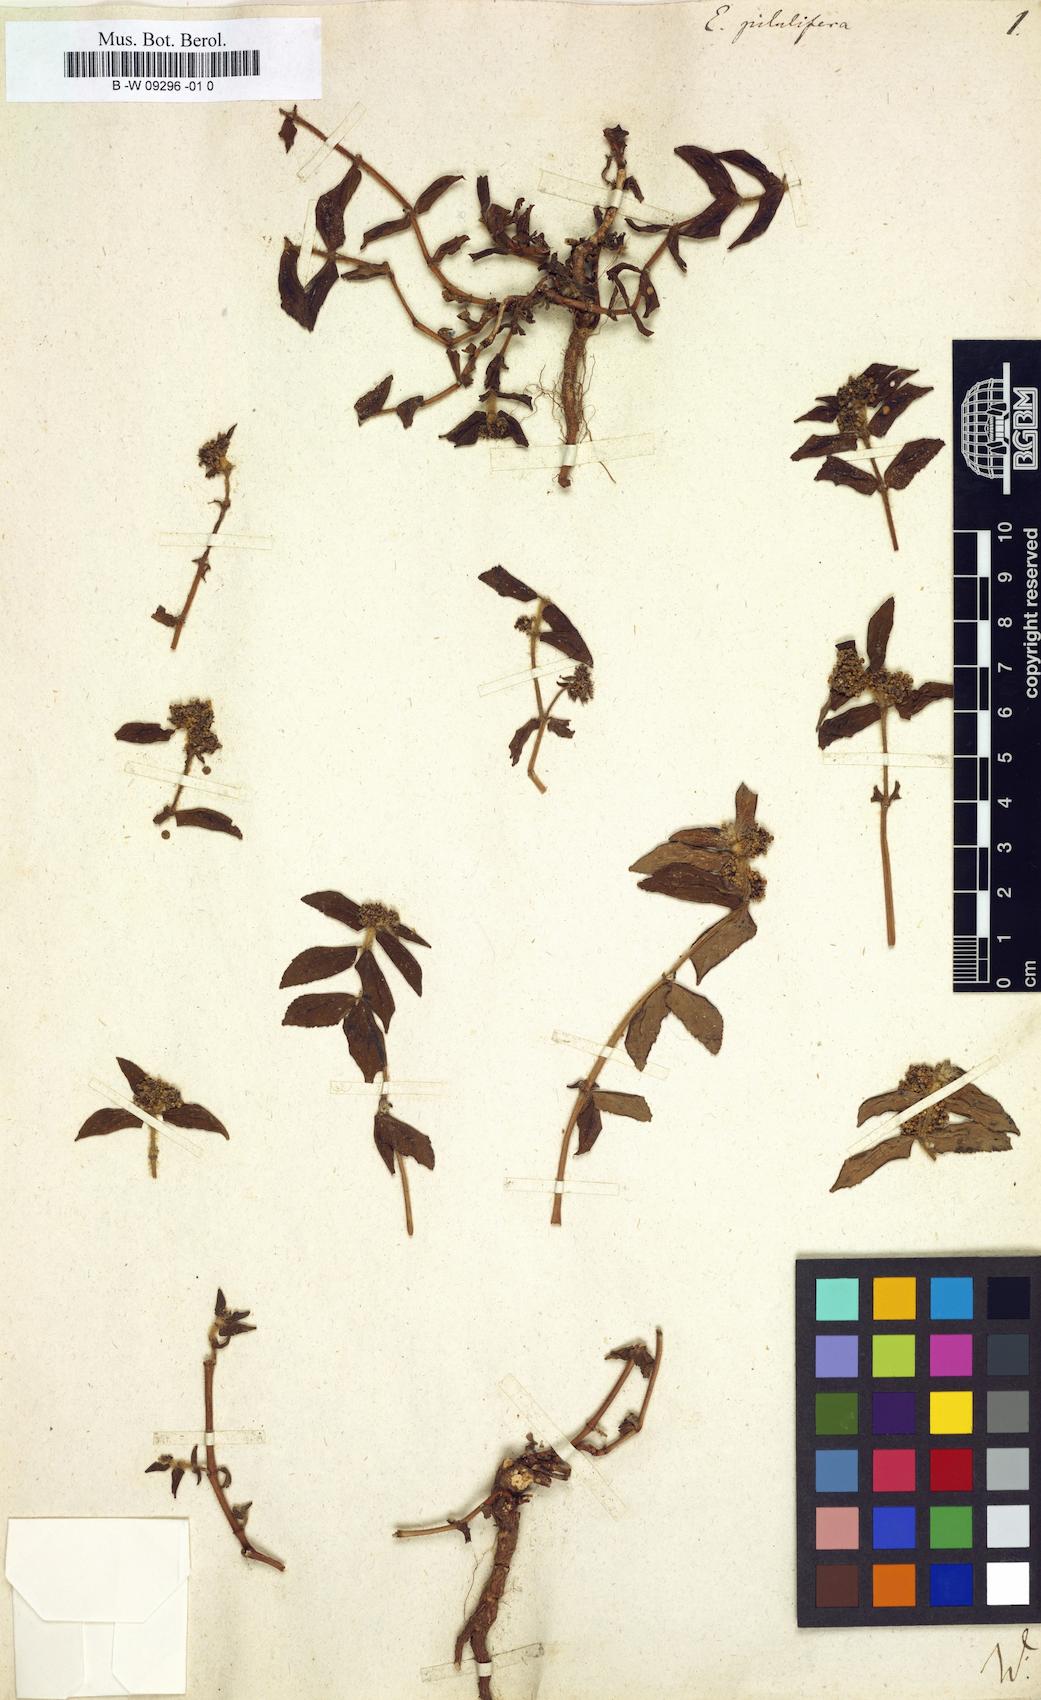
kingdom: Plantae
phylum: Tracheophyta
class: Magnoliopsida
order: Malpighiales
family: Euphorbiaceae
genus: Euphorbia
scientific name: Euphorbia pilulifera
